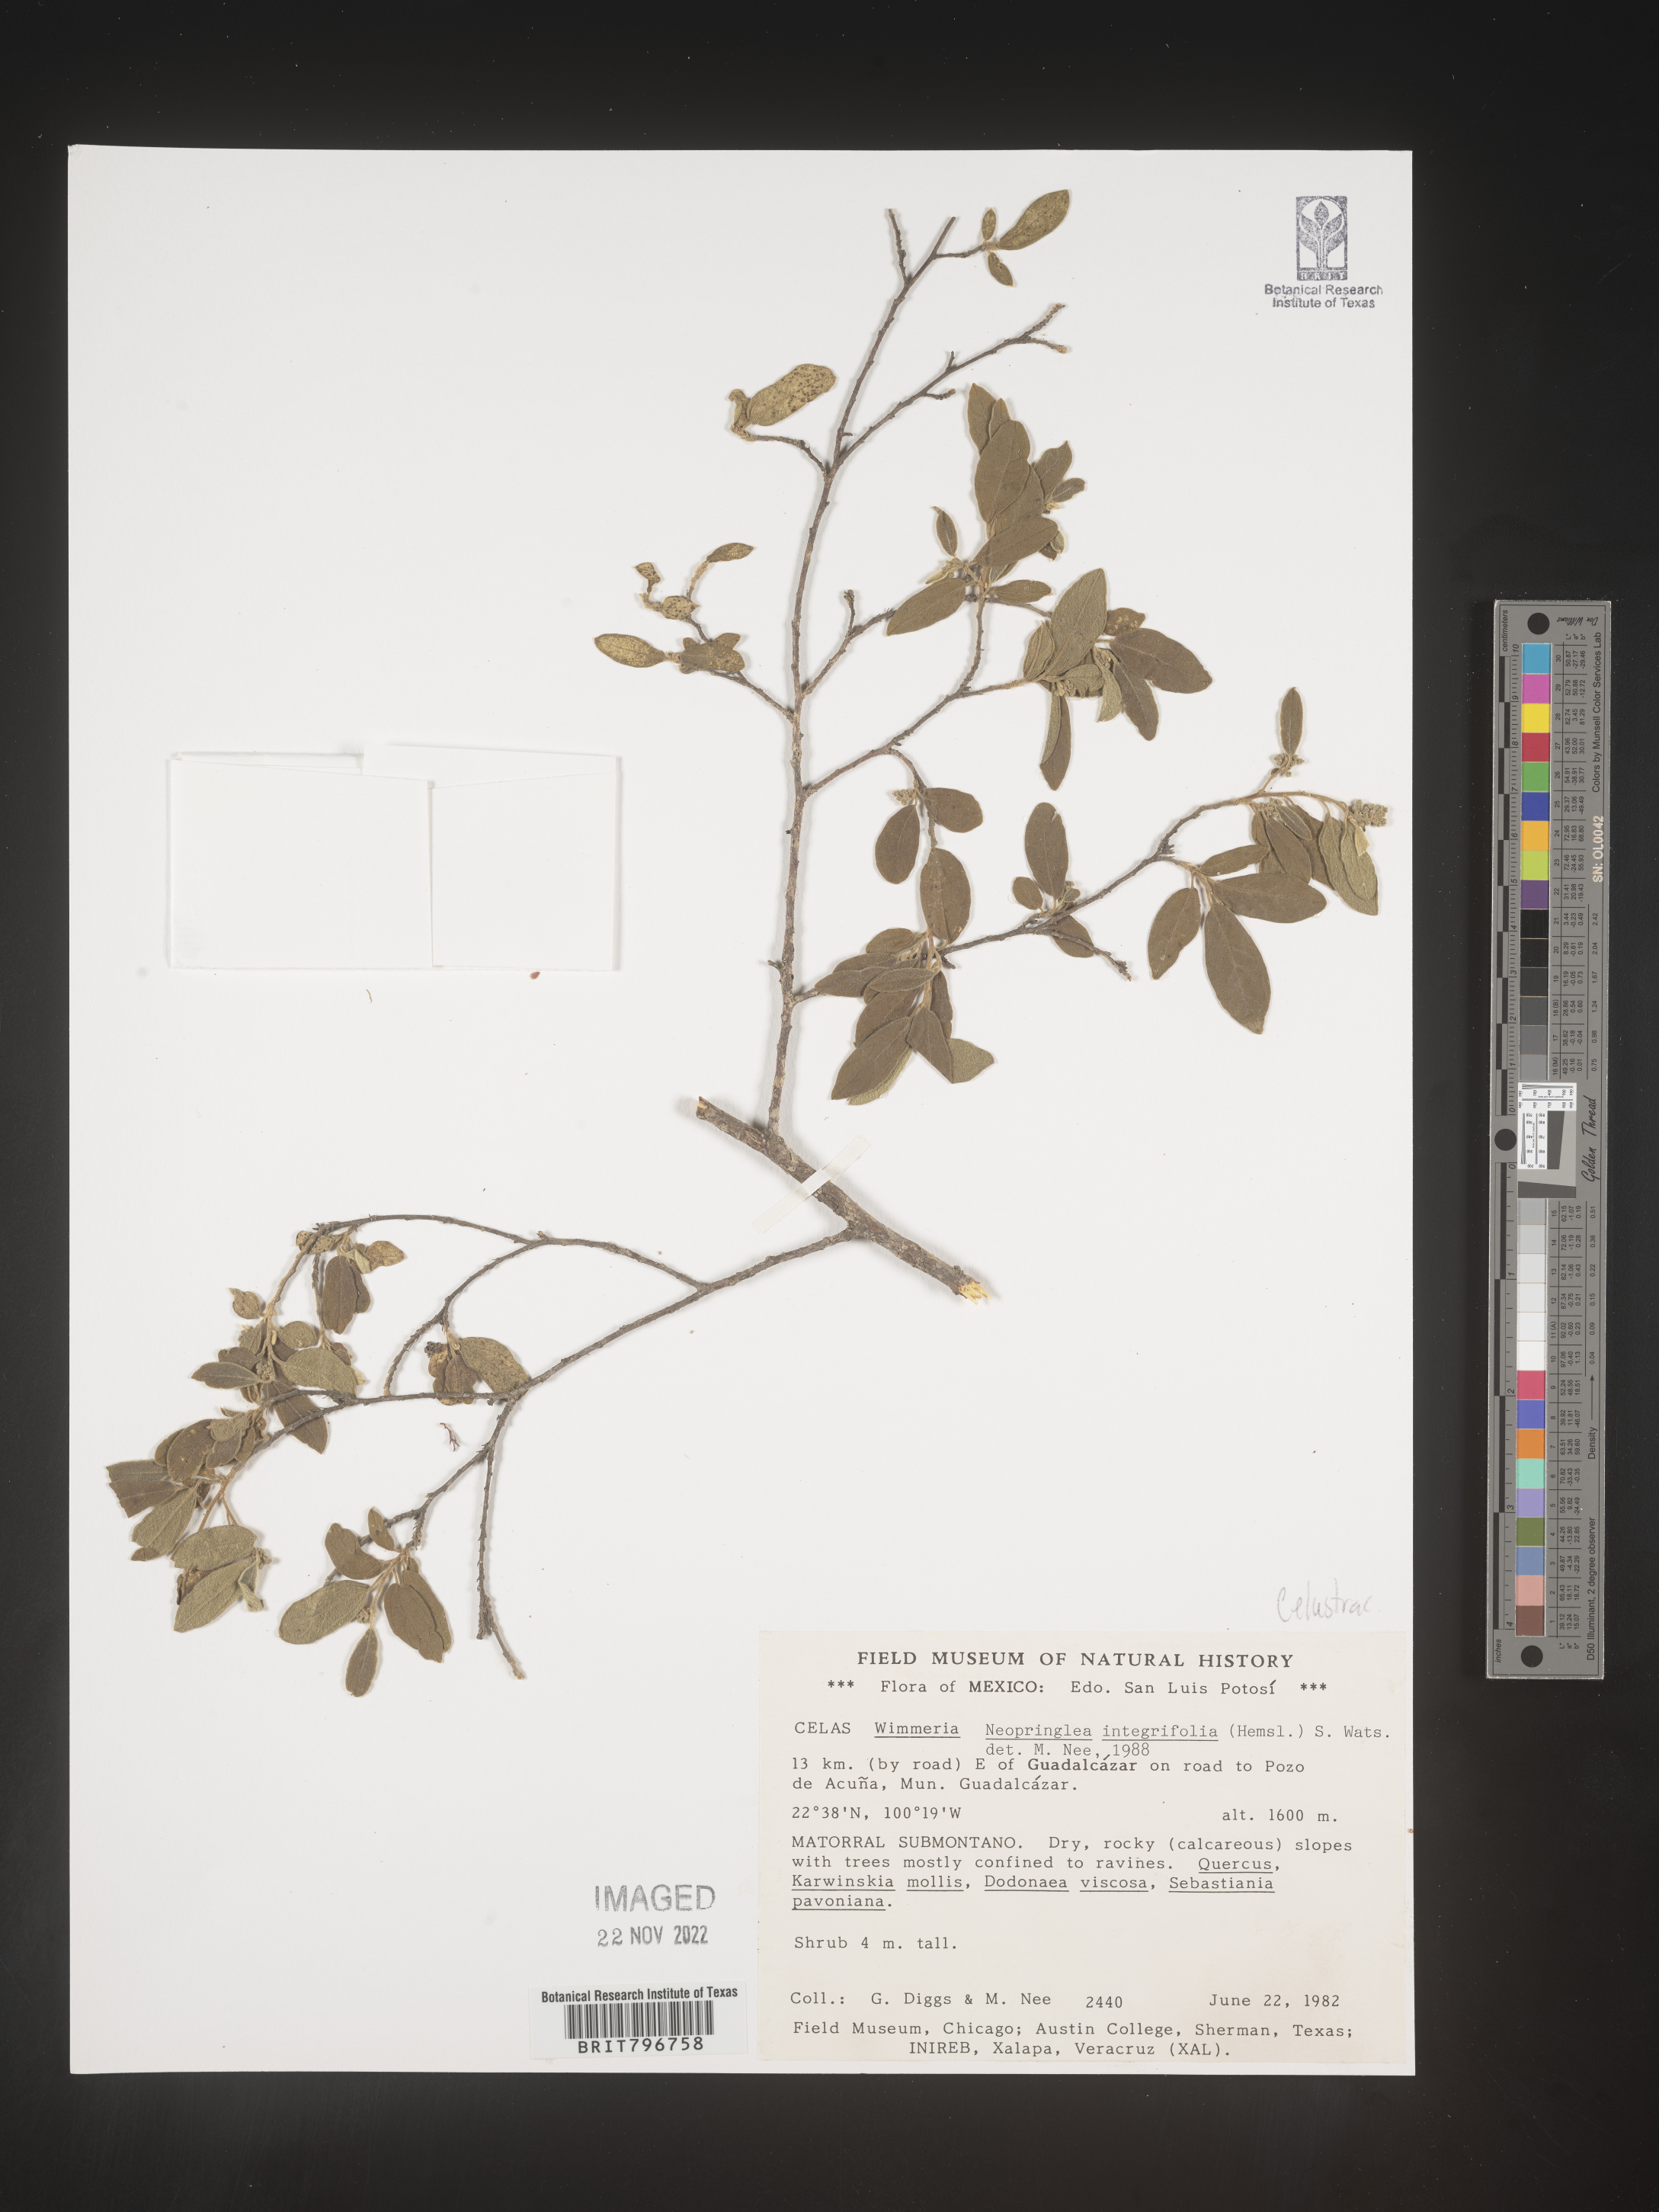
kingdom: Plantae
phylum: Tracheophyta
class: Magnoliopsida
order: Celastrales
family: Celastraceae
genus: Wimmeria
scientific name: Wimmeria
